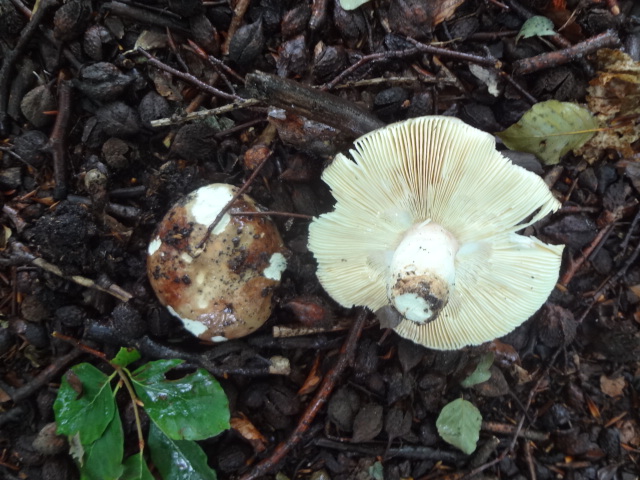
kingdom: Fungi
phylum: Basidiomycota
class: Agaricomycetes
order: Russulales
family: Russulaceae
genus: Russula
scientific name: Russula olivacea
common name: stor skørhat
